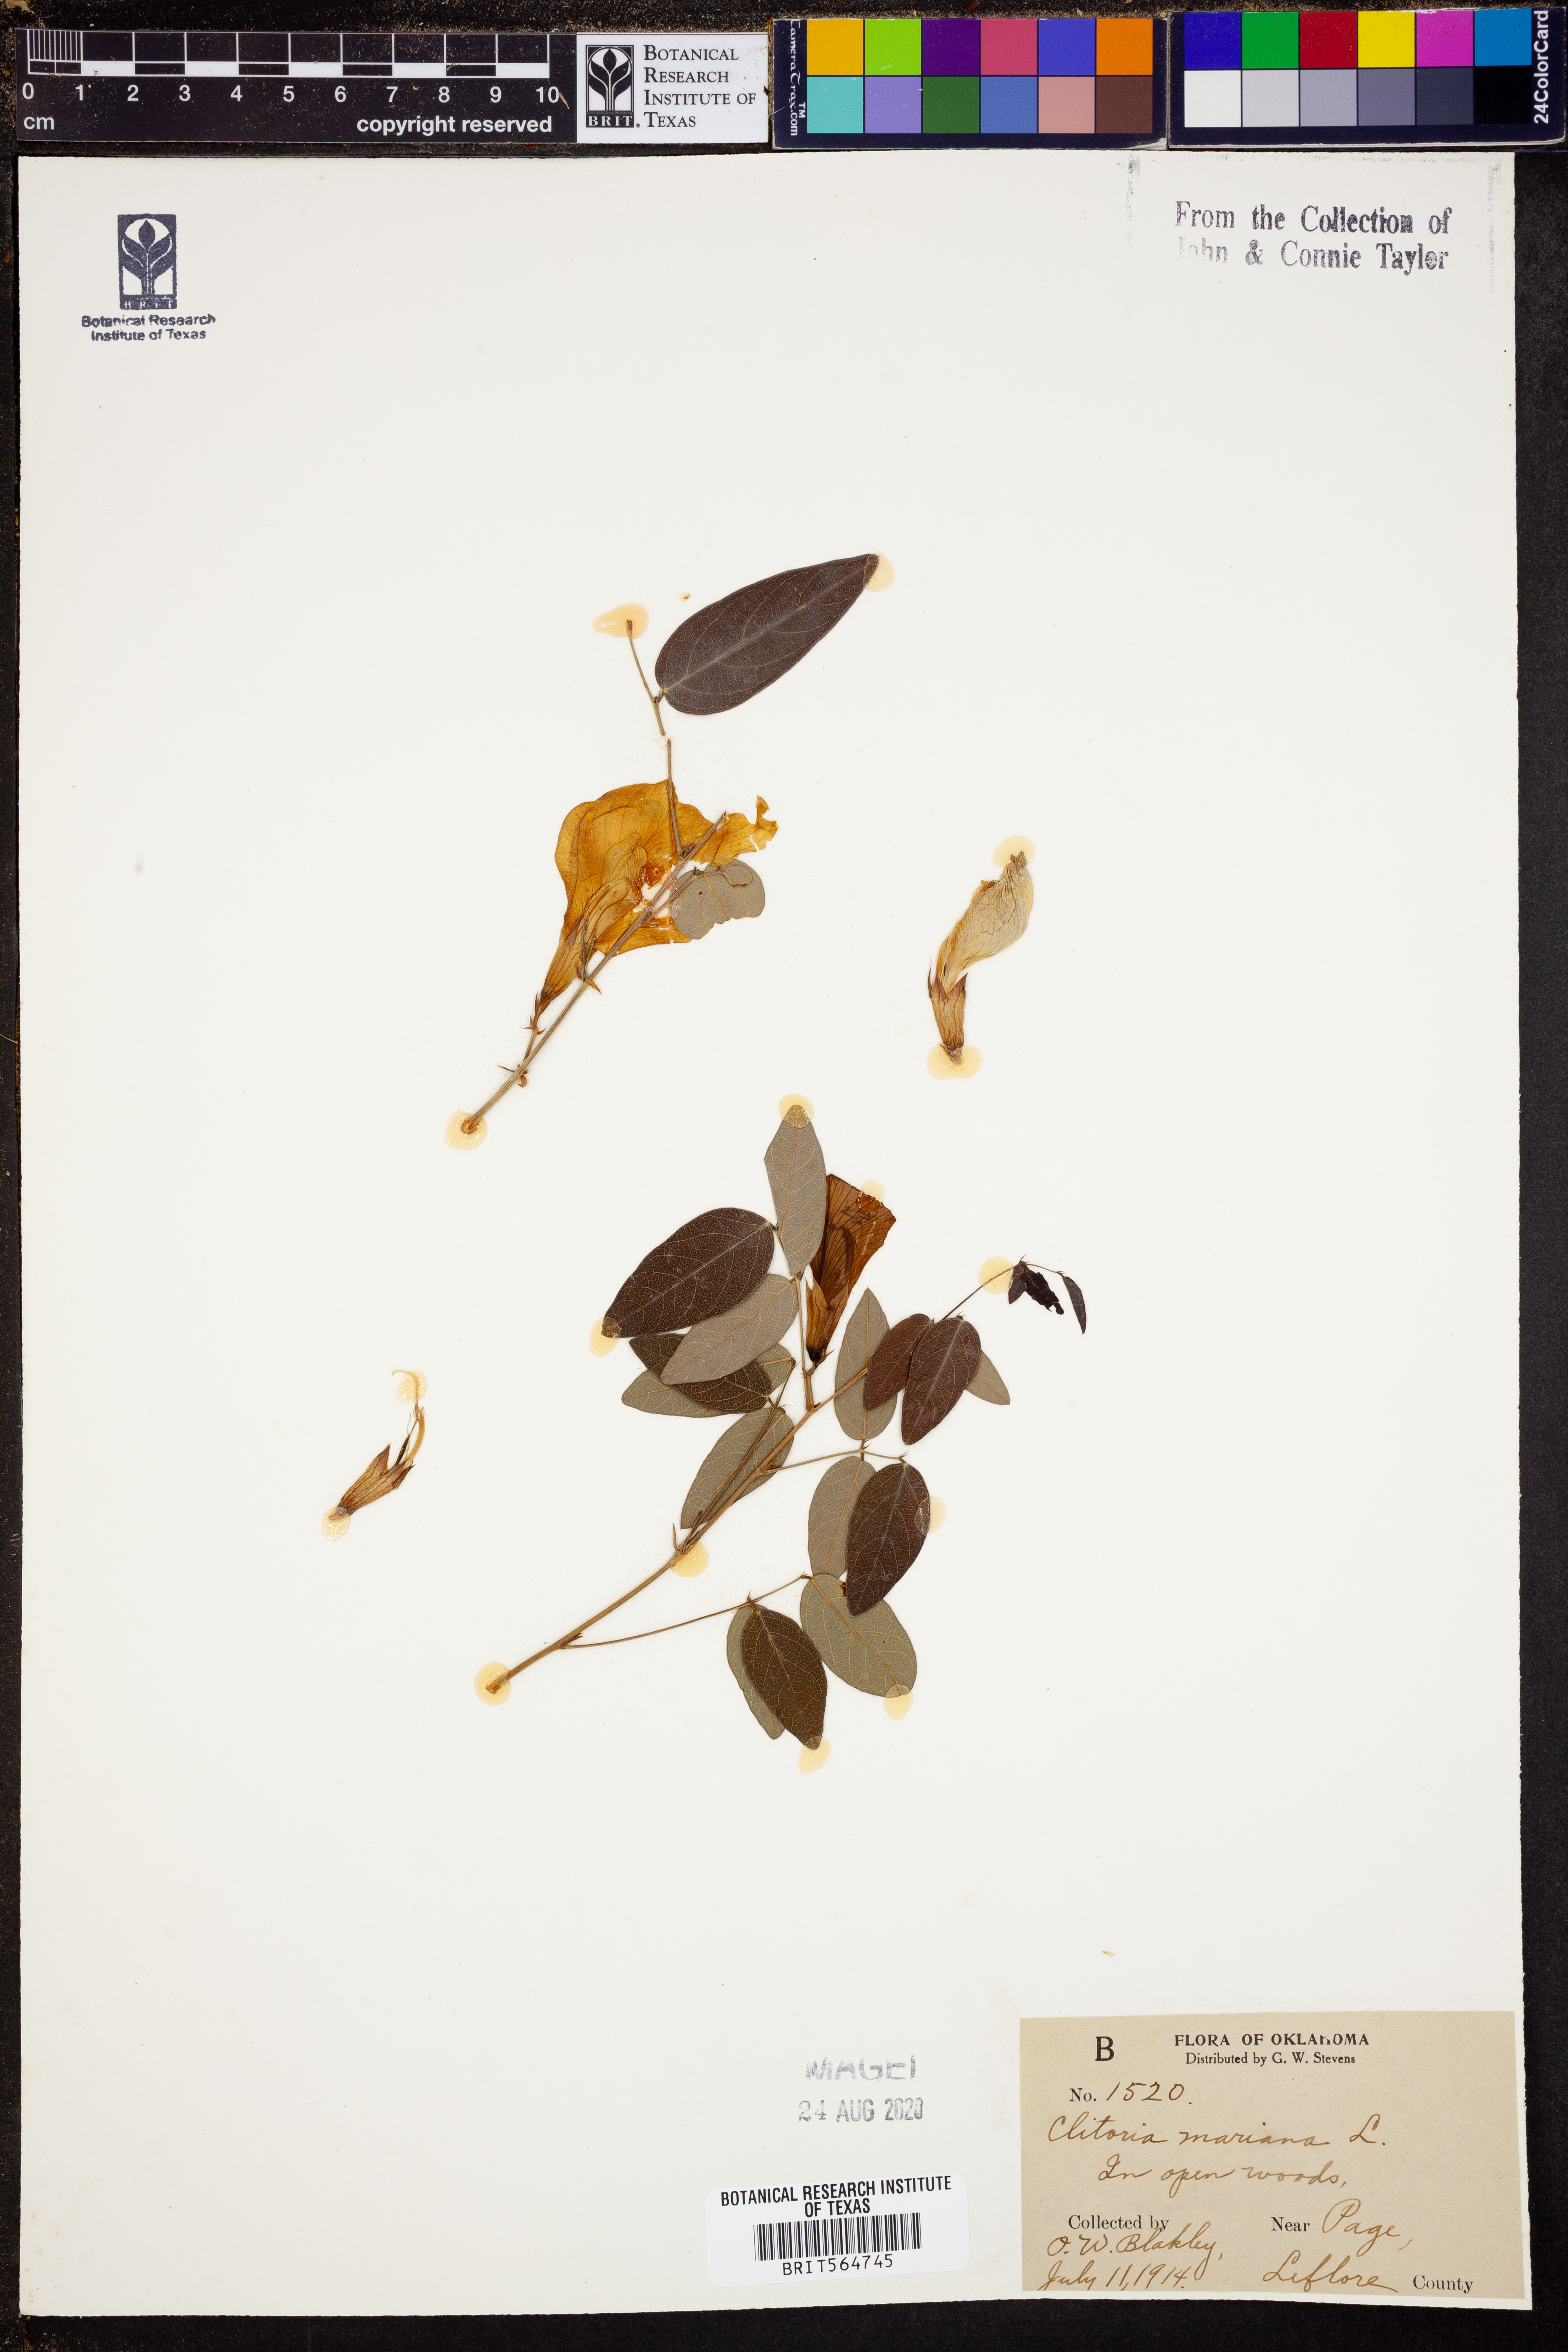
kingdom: Plantae
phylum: Tracheophyta
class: Magnoliopsida
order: Fabales
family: Fabaceae
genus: Clitoria
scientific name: Clitoria mariana
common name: Butterfly-pea
